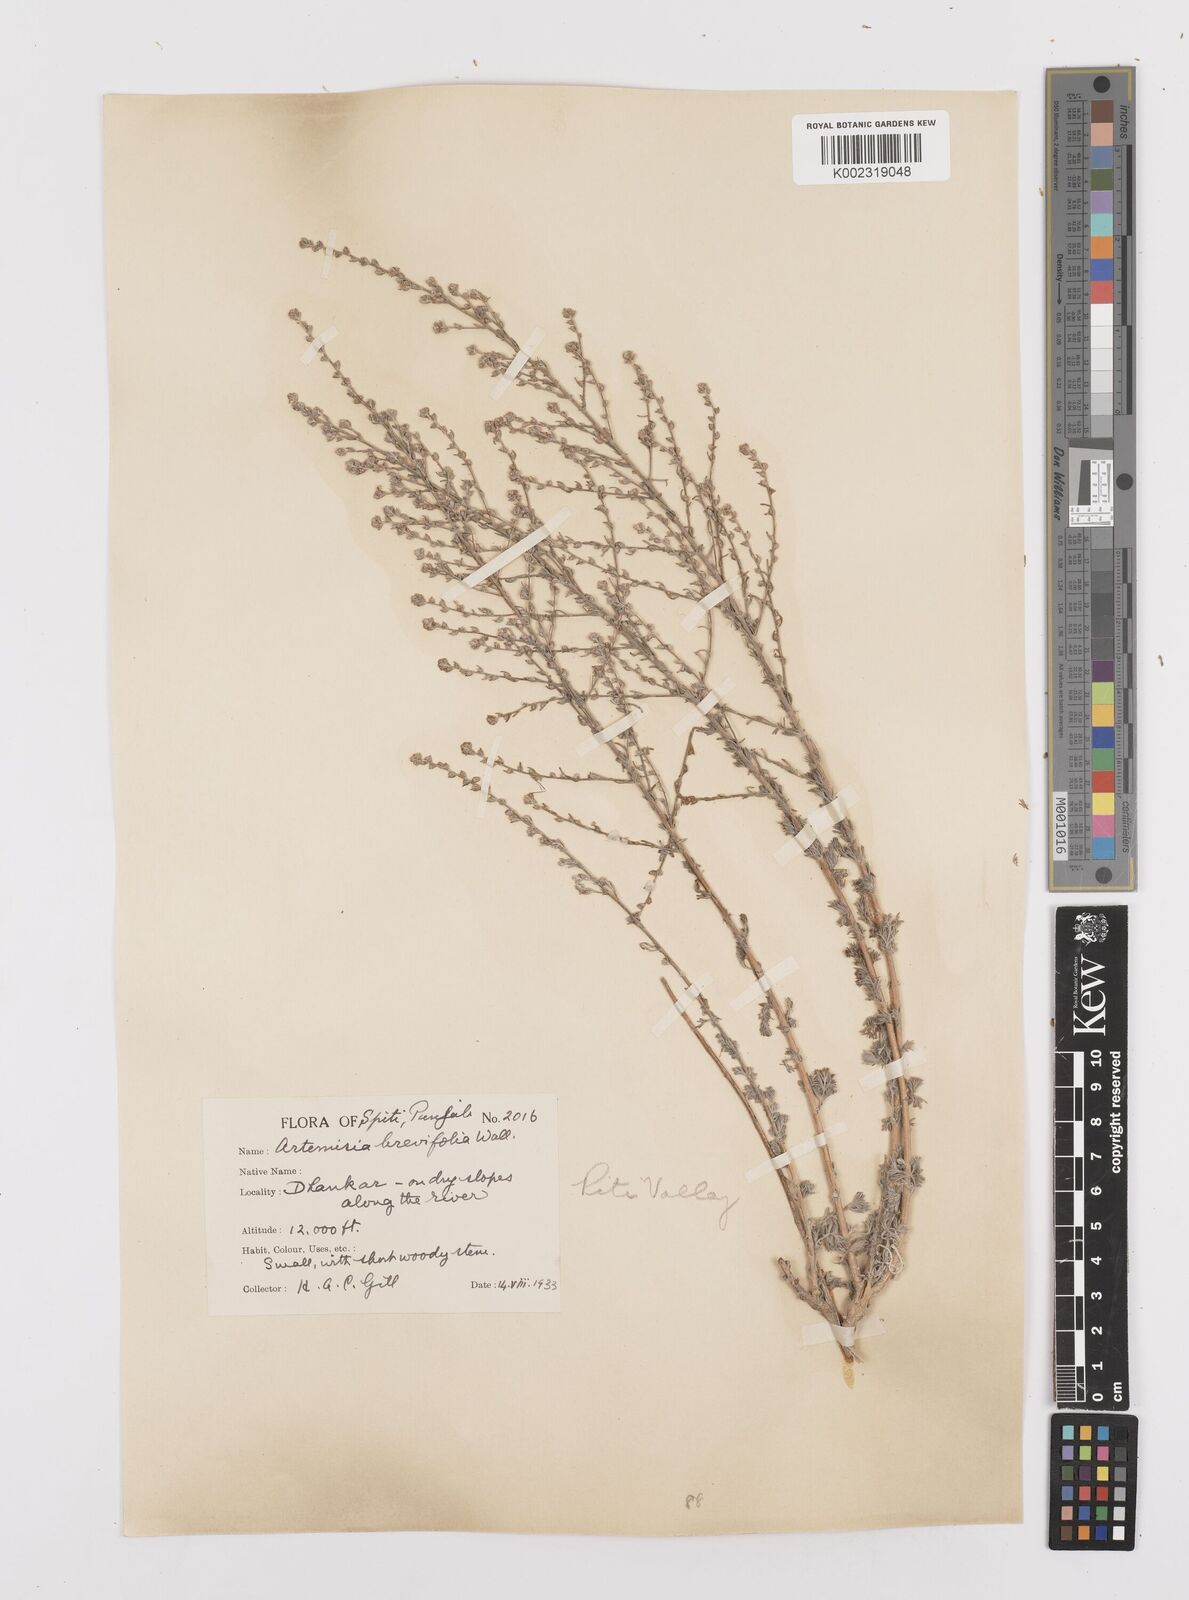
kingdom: Plantae
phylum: Tracheophyta
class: Magnoliopsida
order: Asterales
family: Asteraceae
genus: Artemisia
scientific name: Artemisia brevifolia
